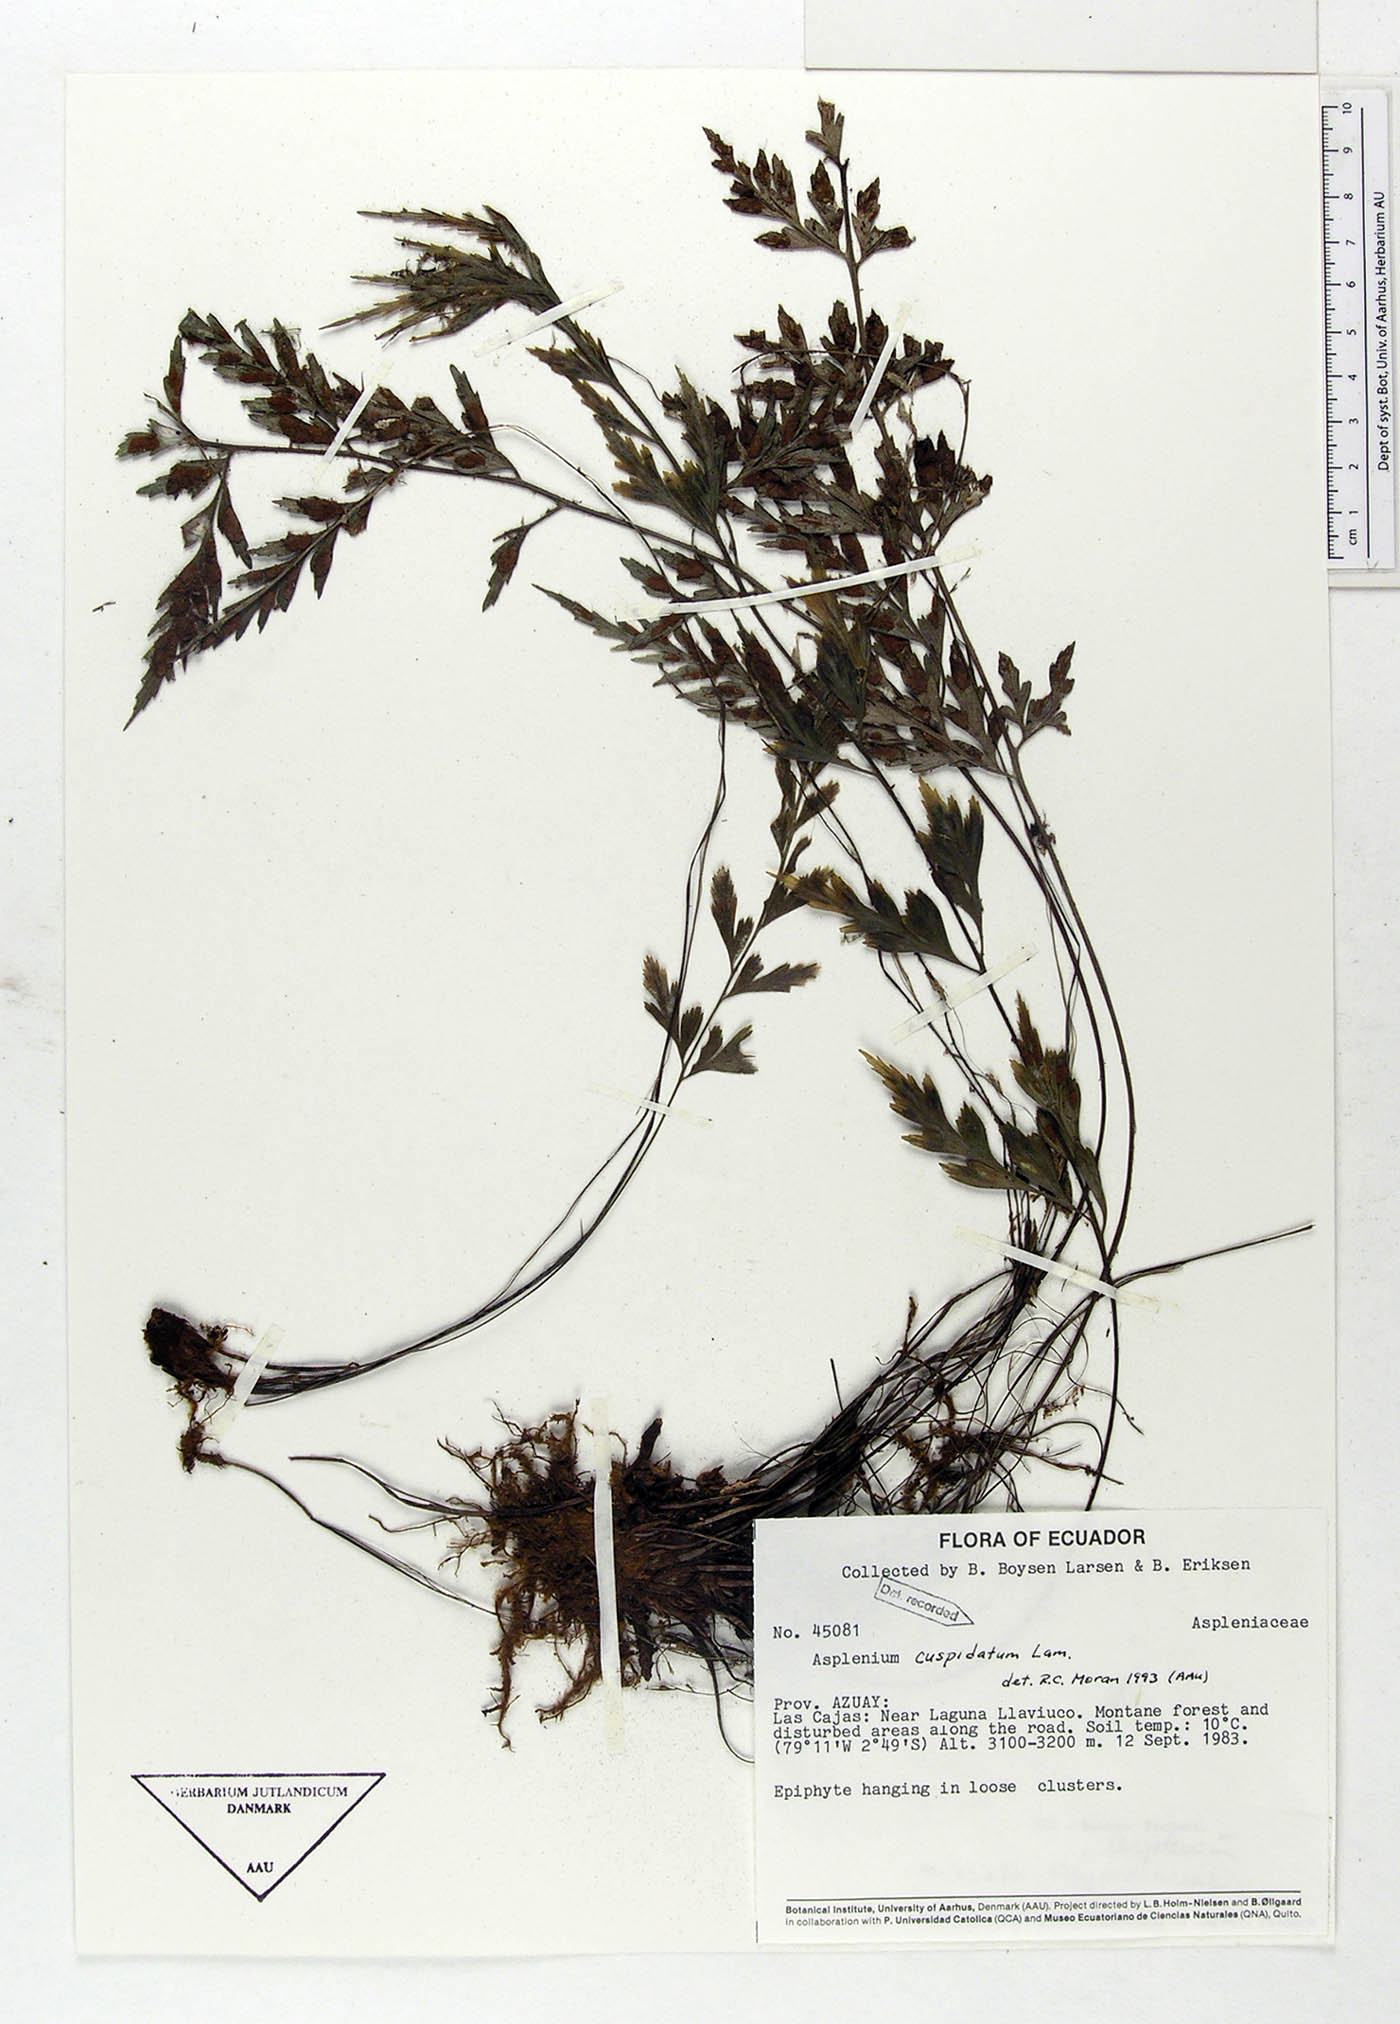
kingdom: Plantae
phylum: Tracheophyta
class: Polypodiopsida
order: Polypodiales
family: Aspleniaceae
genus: Asplenium
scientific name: Asplenium cuspidatum
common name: Eared spleenwort
